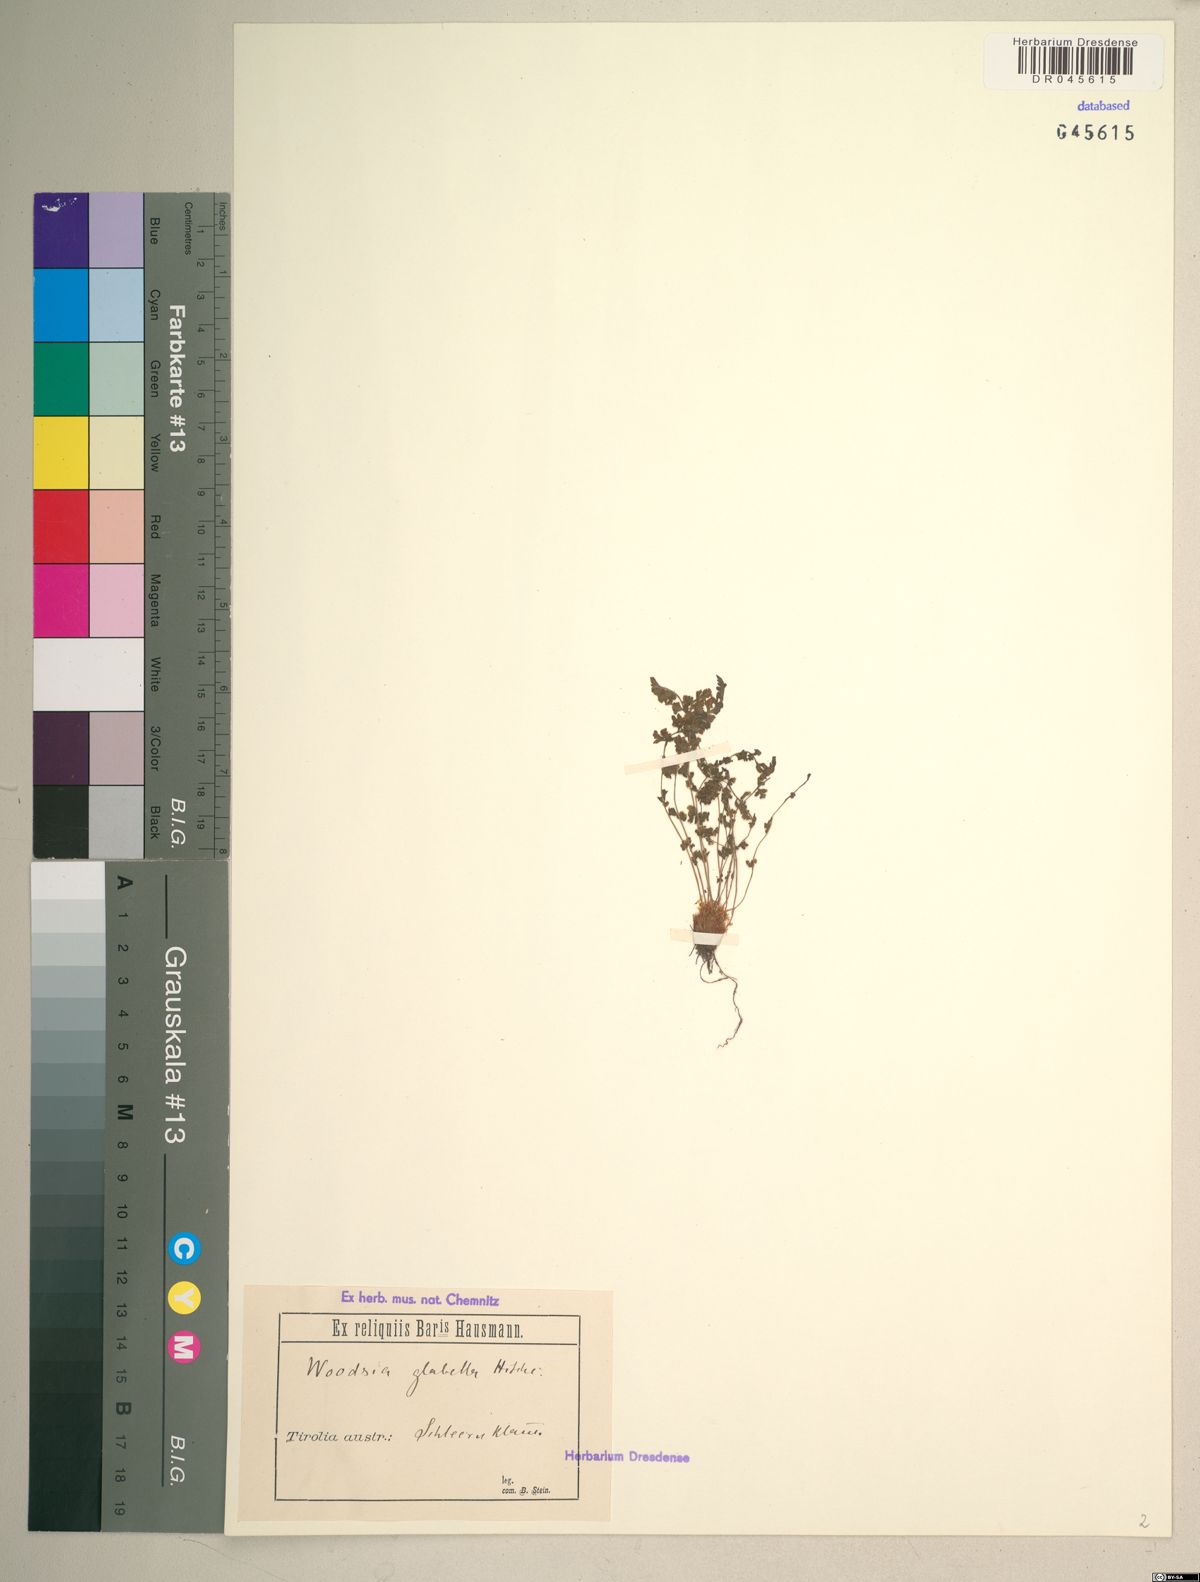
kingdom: Plantae
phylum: Tracheophyta
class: Polypodiopsida
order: Polypodiales
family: Woodsiaceae
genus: Woodsia
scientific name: Woodsia glabella
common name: Smooth woodsia
